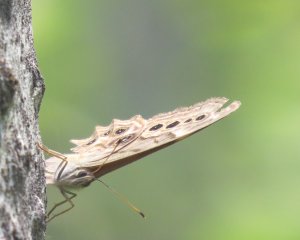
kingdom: Animalia
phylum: Arthropoda
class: Insecta
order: Lepidoptera
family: Nymphalidae
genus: Lethe
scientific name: Lethe anthedon
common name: Northern Pearly-Eye
